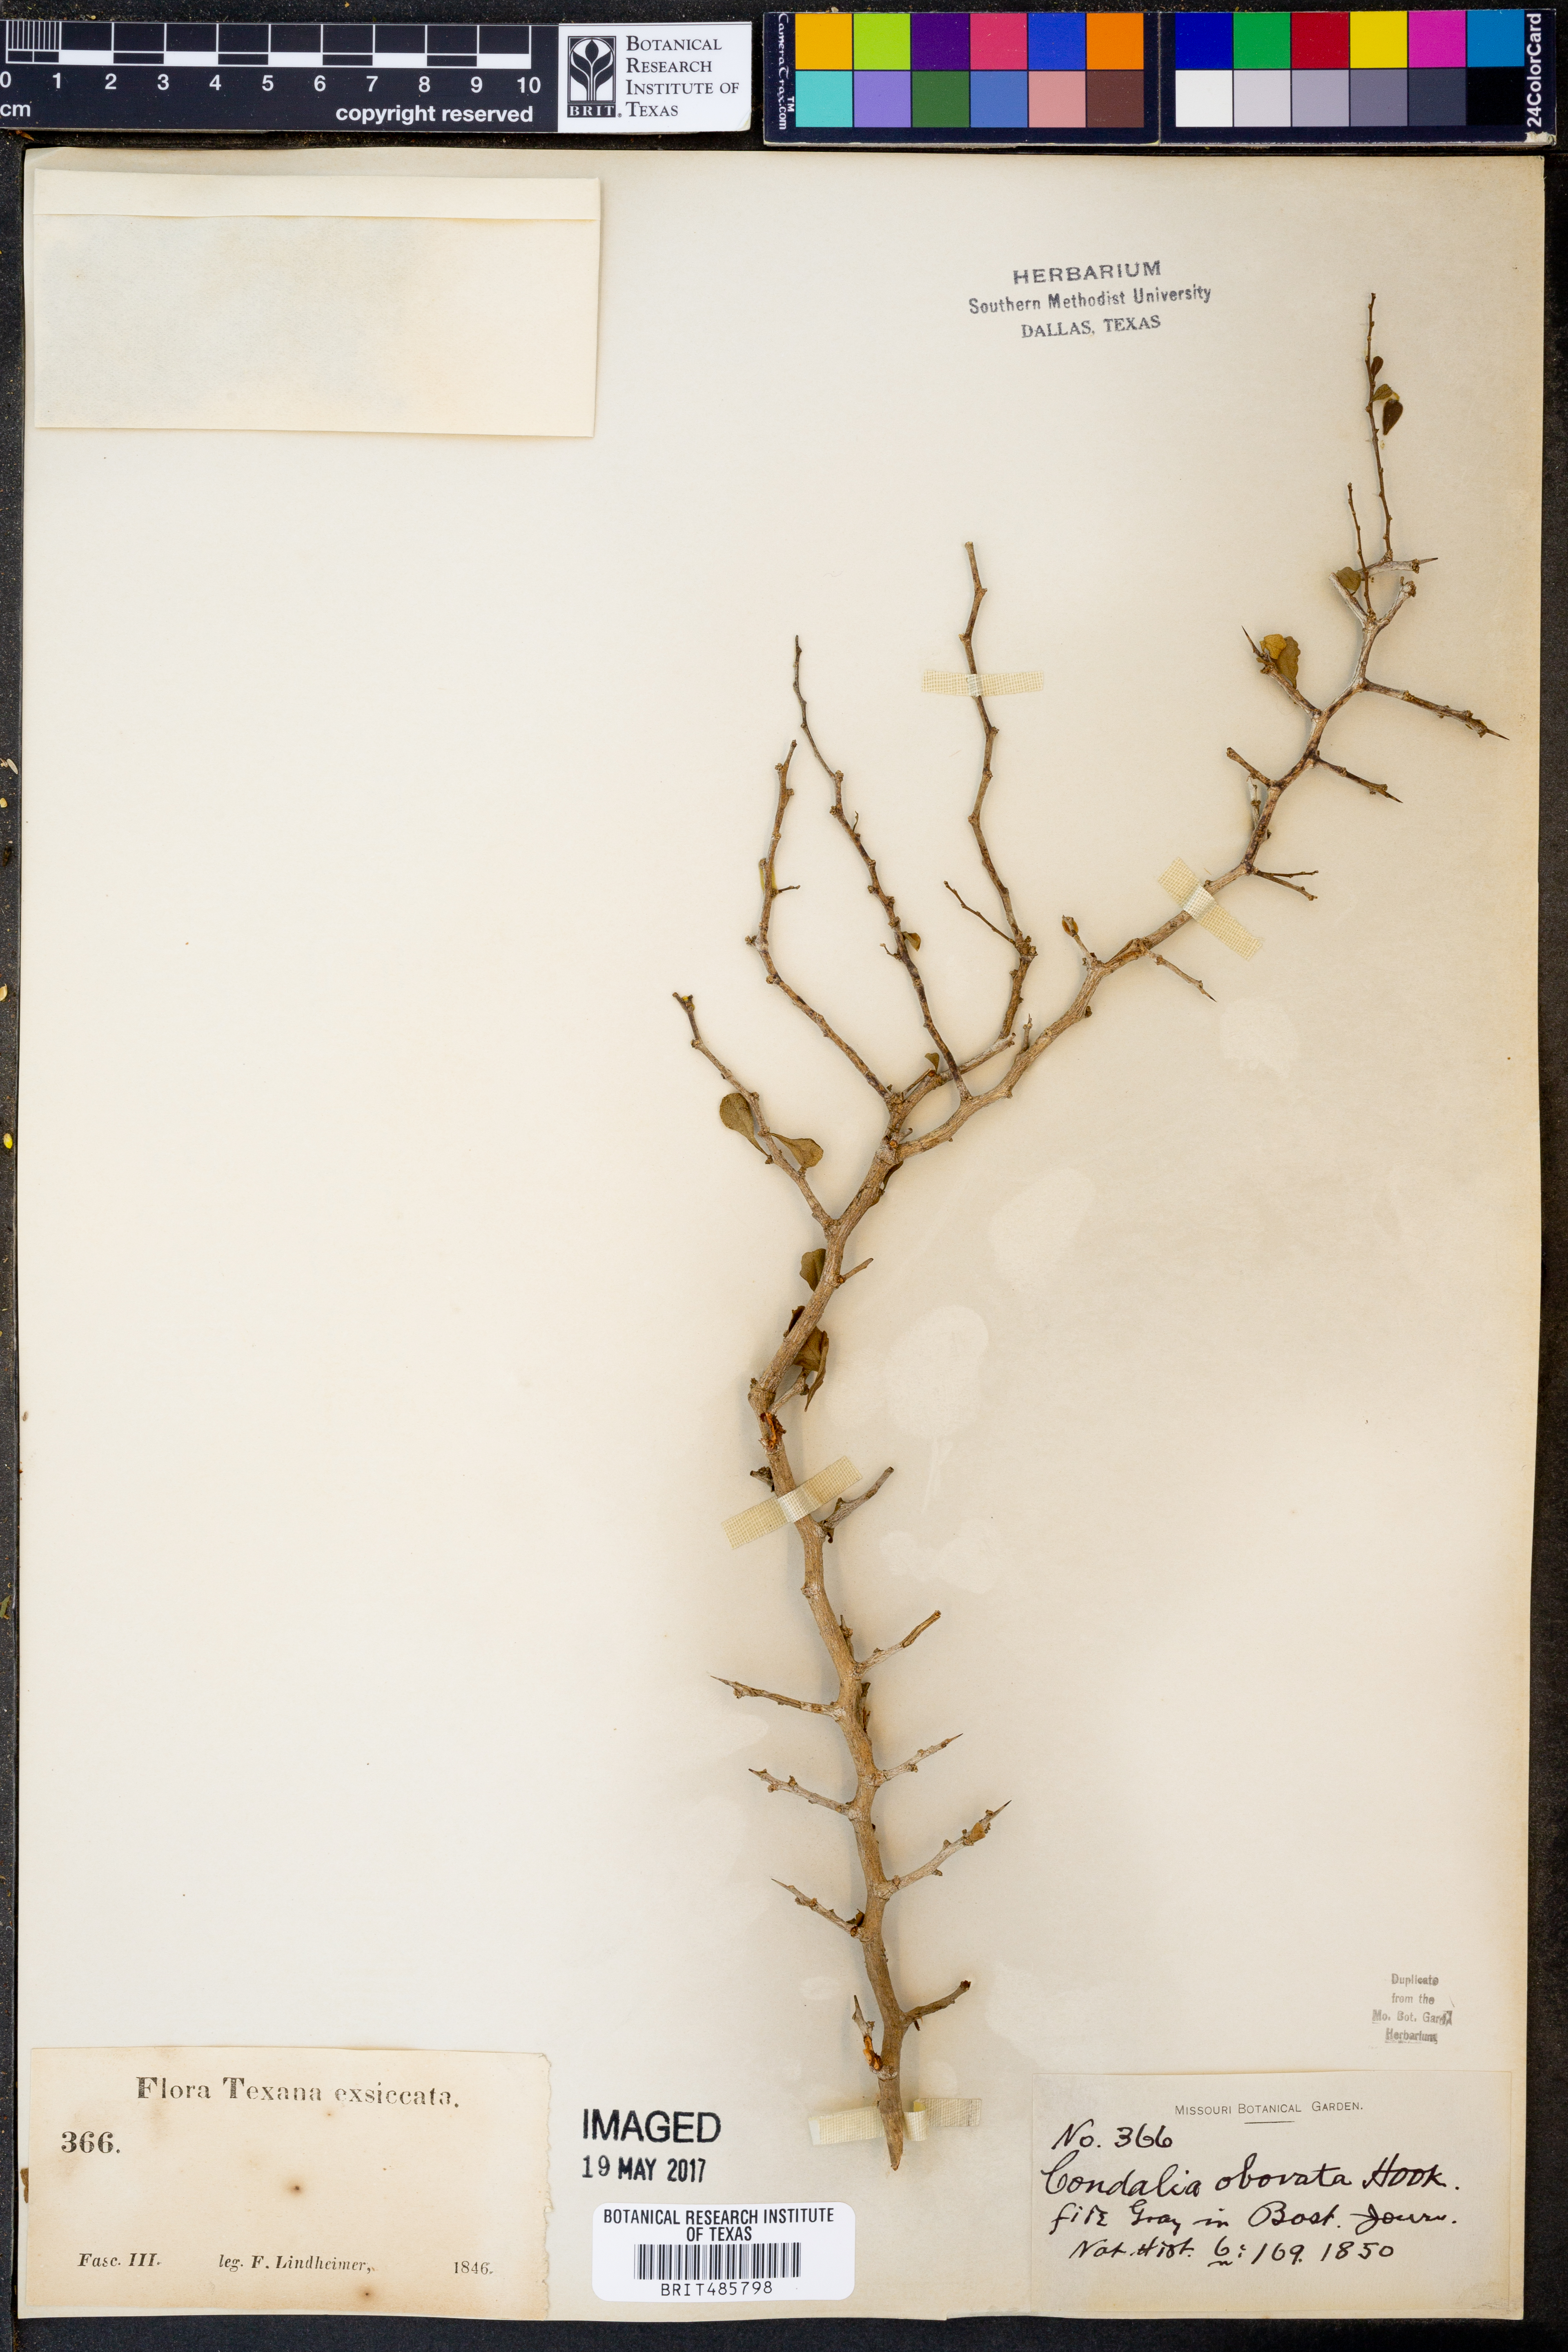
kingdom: Plantae
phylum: Tracheophyta
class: Magnoliopsida
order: Rosales
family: Rhamnaceae
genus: Condalia
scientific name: Condalia hookeri
